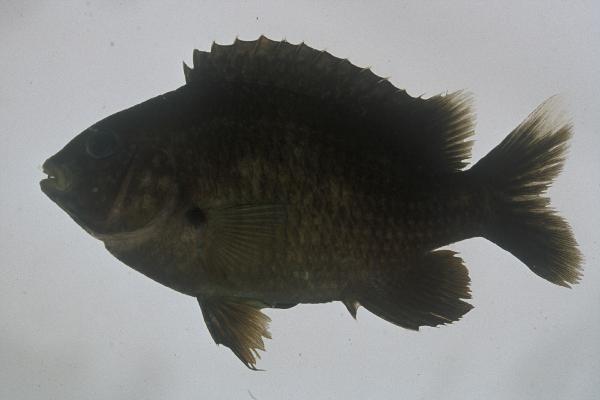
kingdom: Animalia
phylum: Chordata
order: Perciformes
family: Pomacentridae
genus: Plectroglyphidodon
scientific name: Plectroglyphidodon leucozonus
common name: White-band damsel
